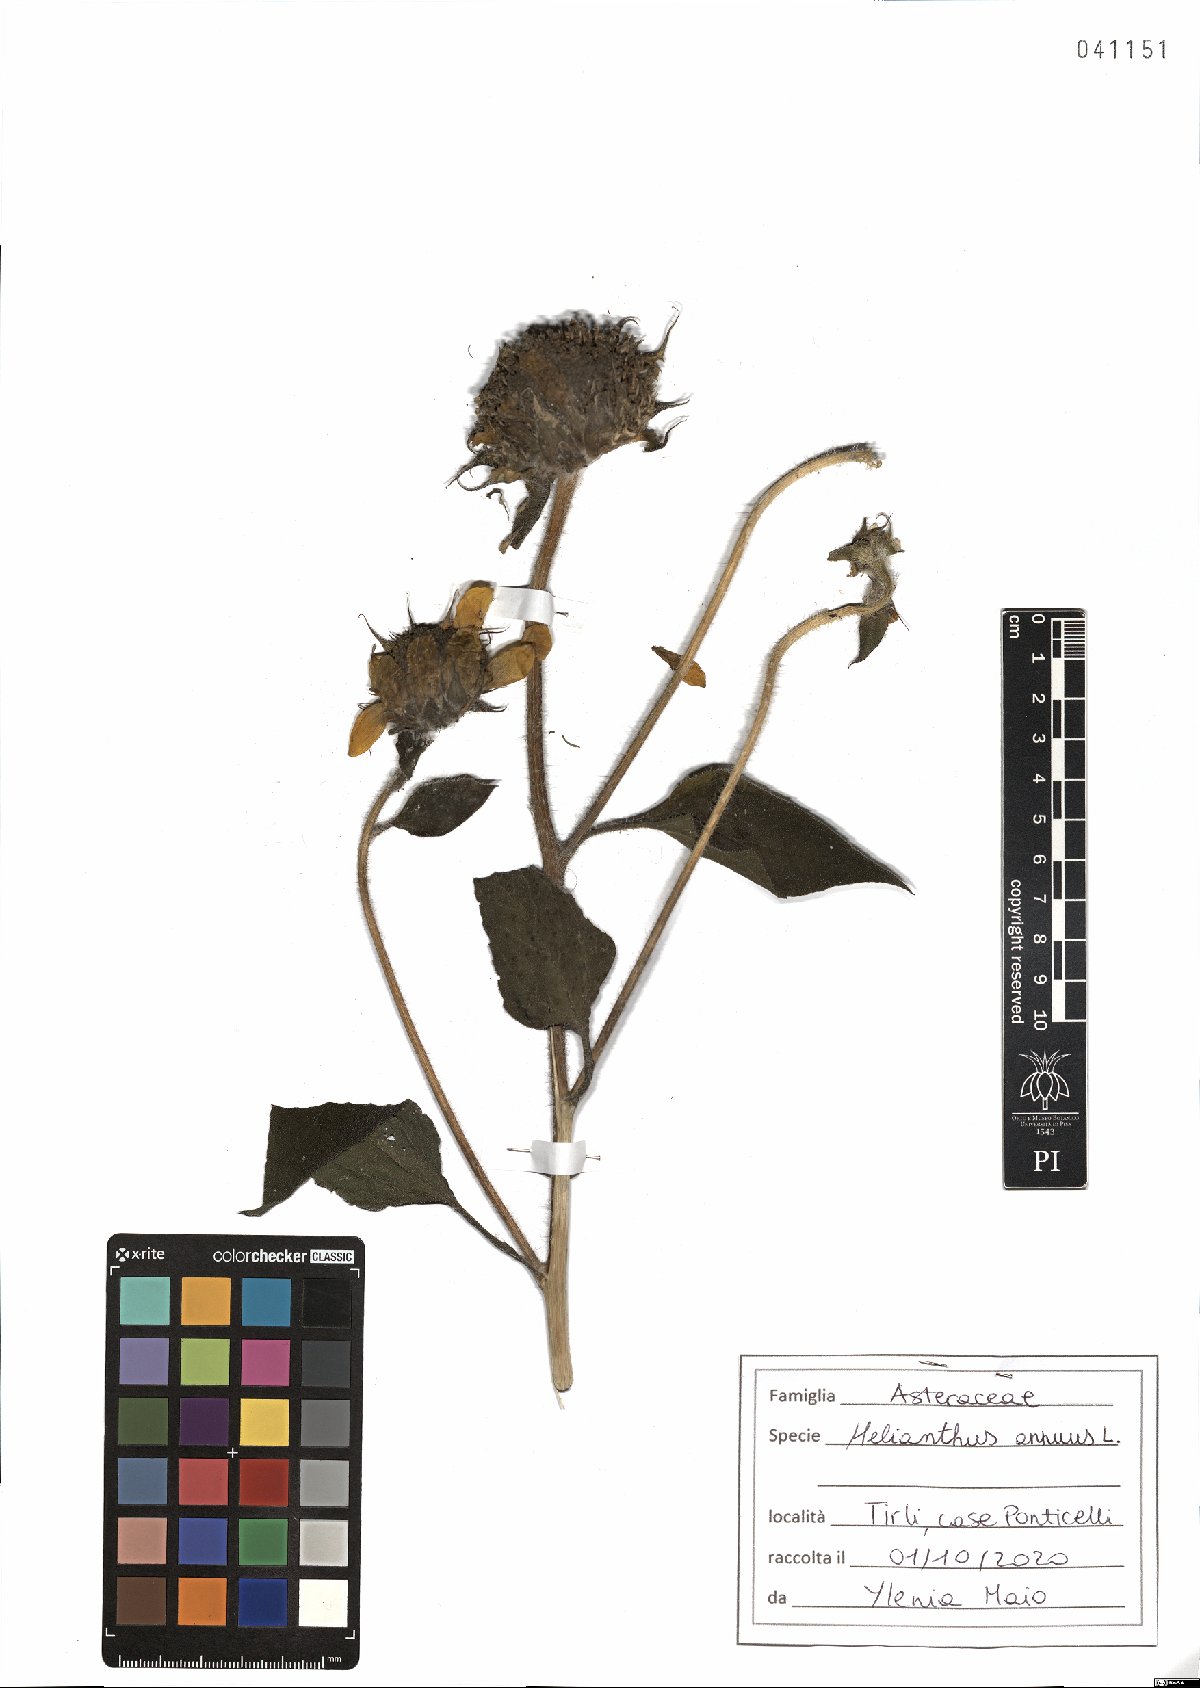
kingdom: Plantae
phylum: Tracheophyta
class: Magnoliopsida
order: Asterales
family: Asteraceae
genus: Helianthus
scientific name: Helianthus annuus
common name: Sunflower
